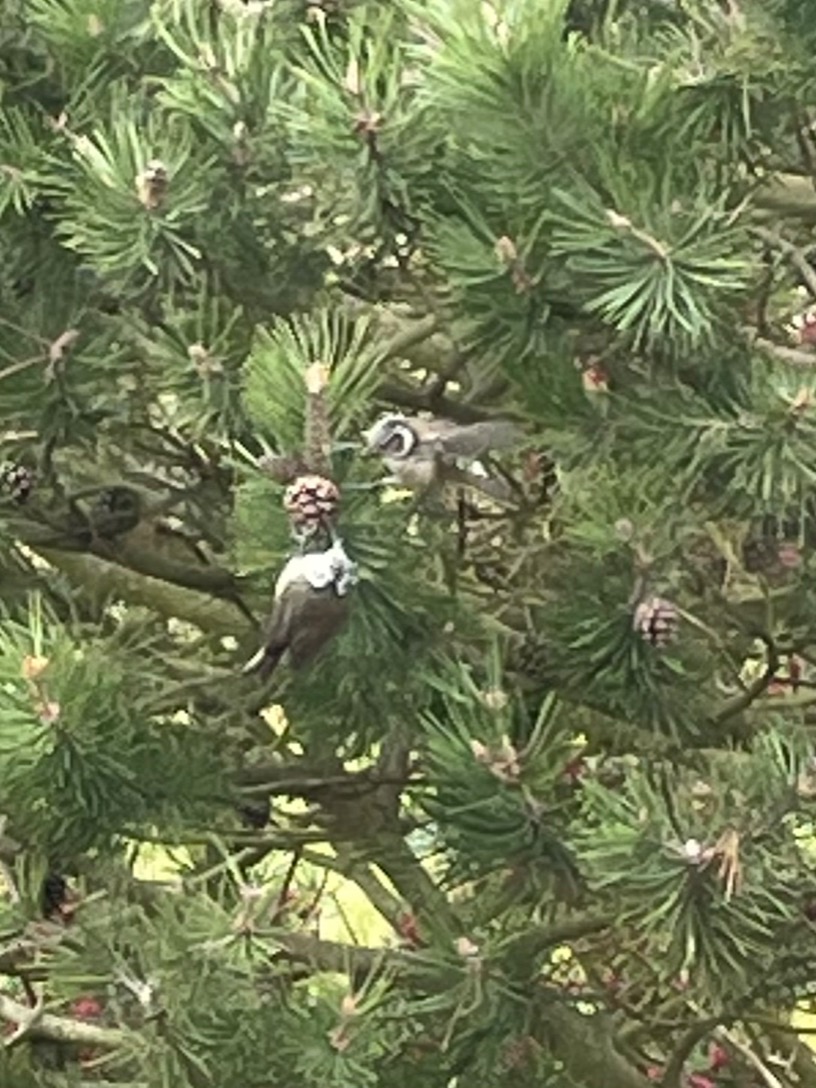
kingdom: Animalia
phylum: Chordata
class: Aves
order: Passeriformes
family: Paridae
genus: Lophophanes
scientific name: Lophophanes cristatus
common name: Topmejse
